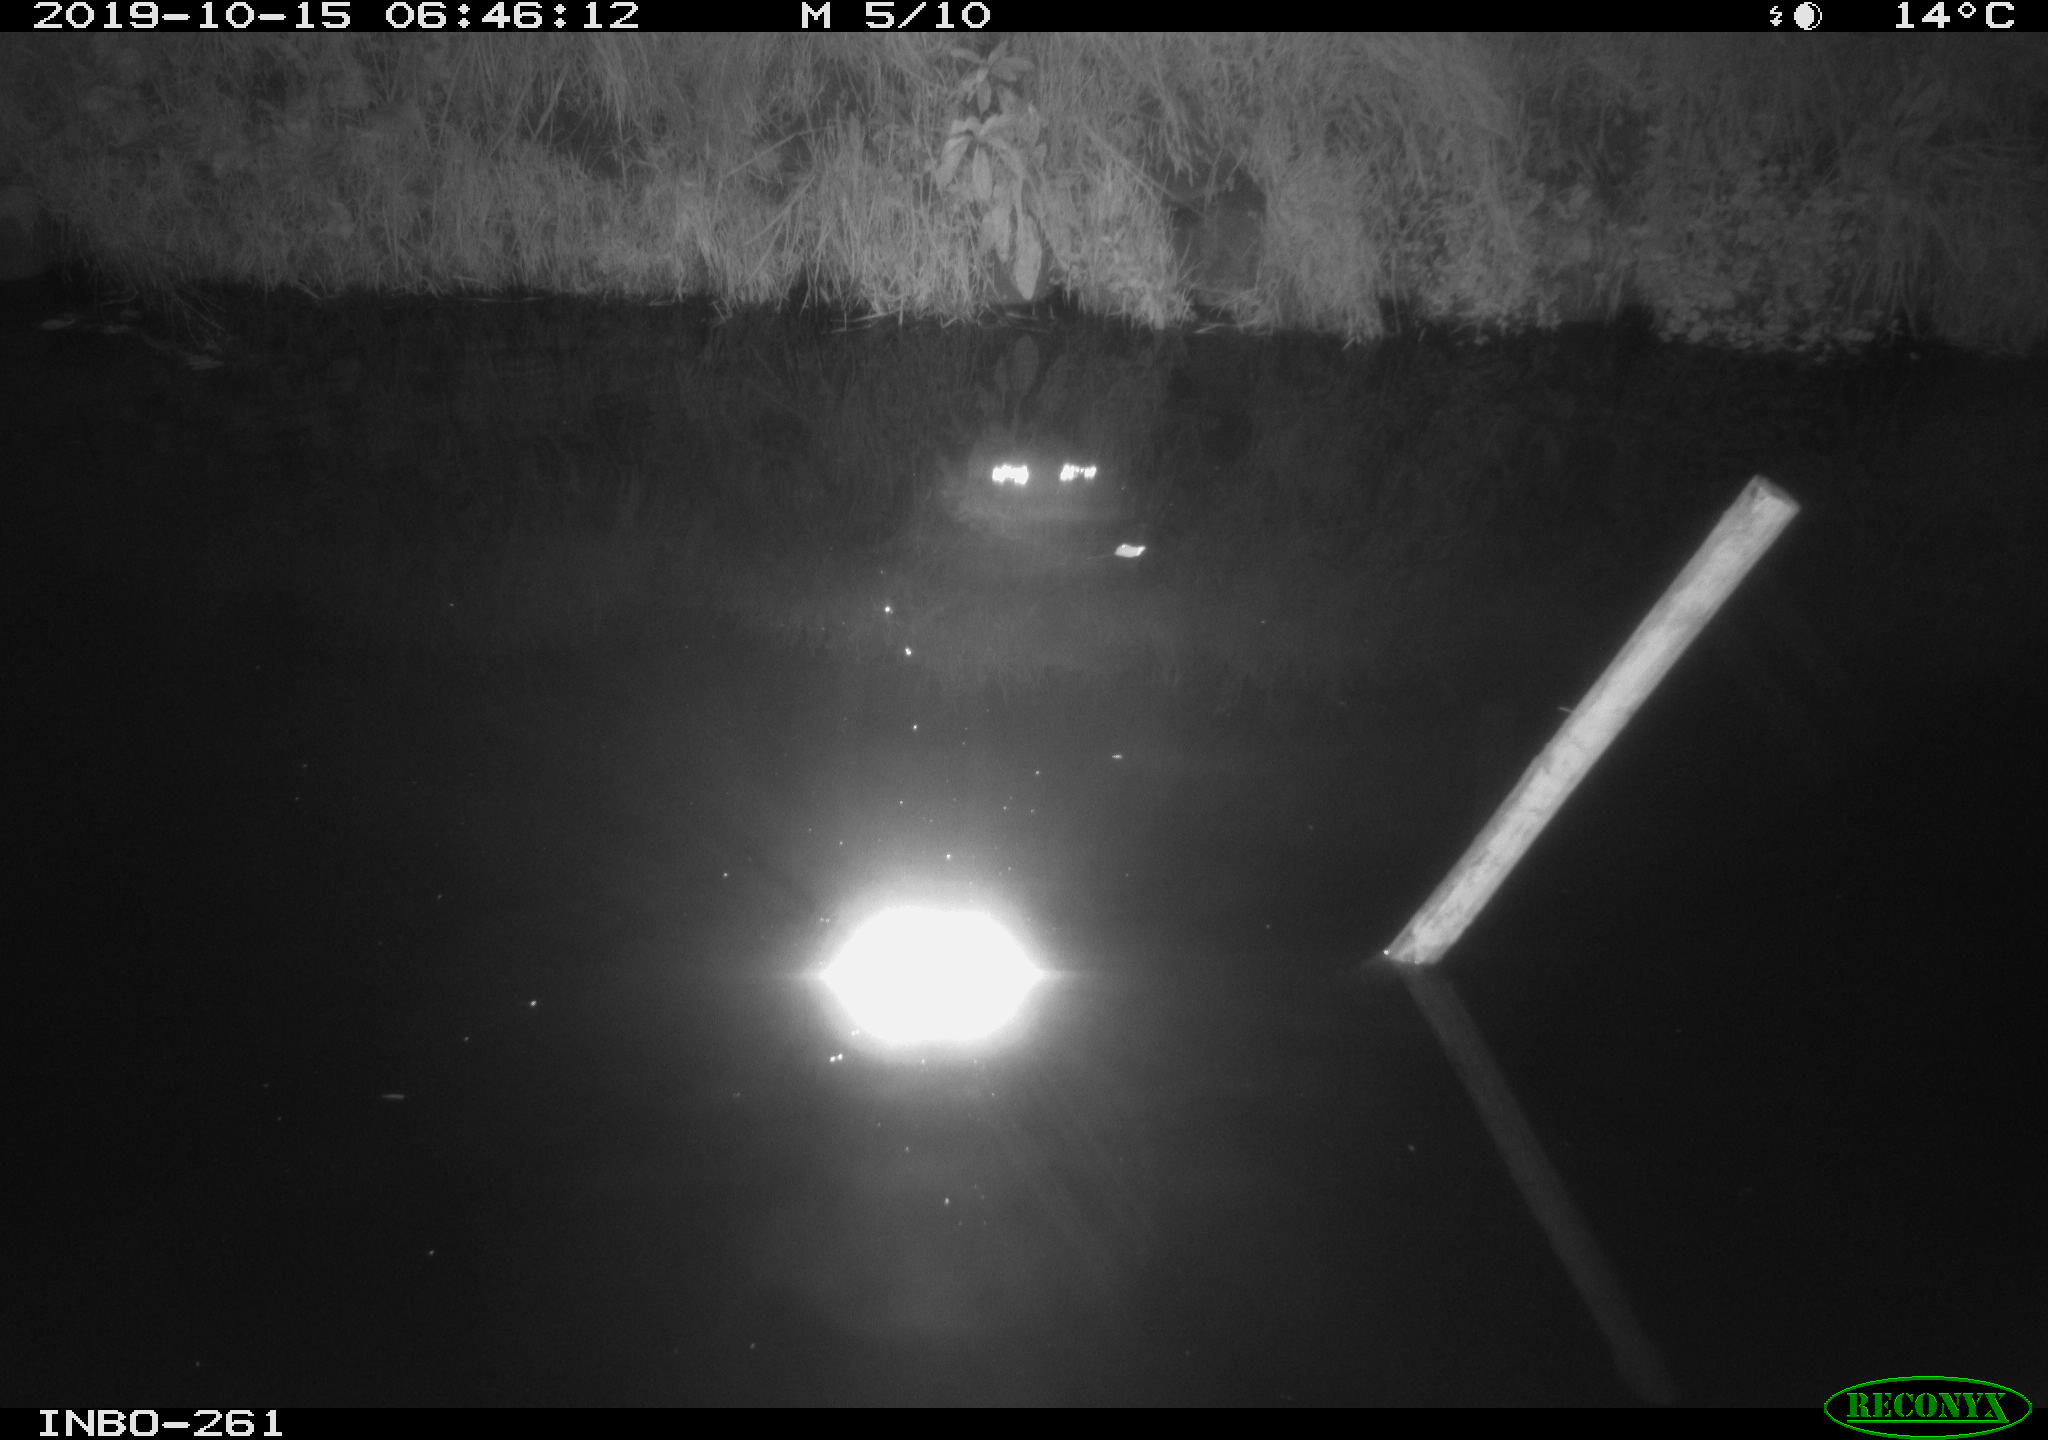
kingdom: Animalia
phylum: Chordata
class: Aves
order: Anseriformes
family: Anatidae
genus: Anas
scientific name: Anas platyrhynchos
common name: Mallard
